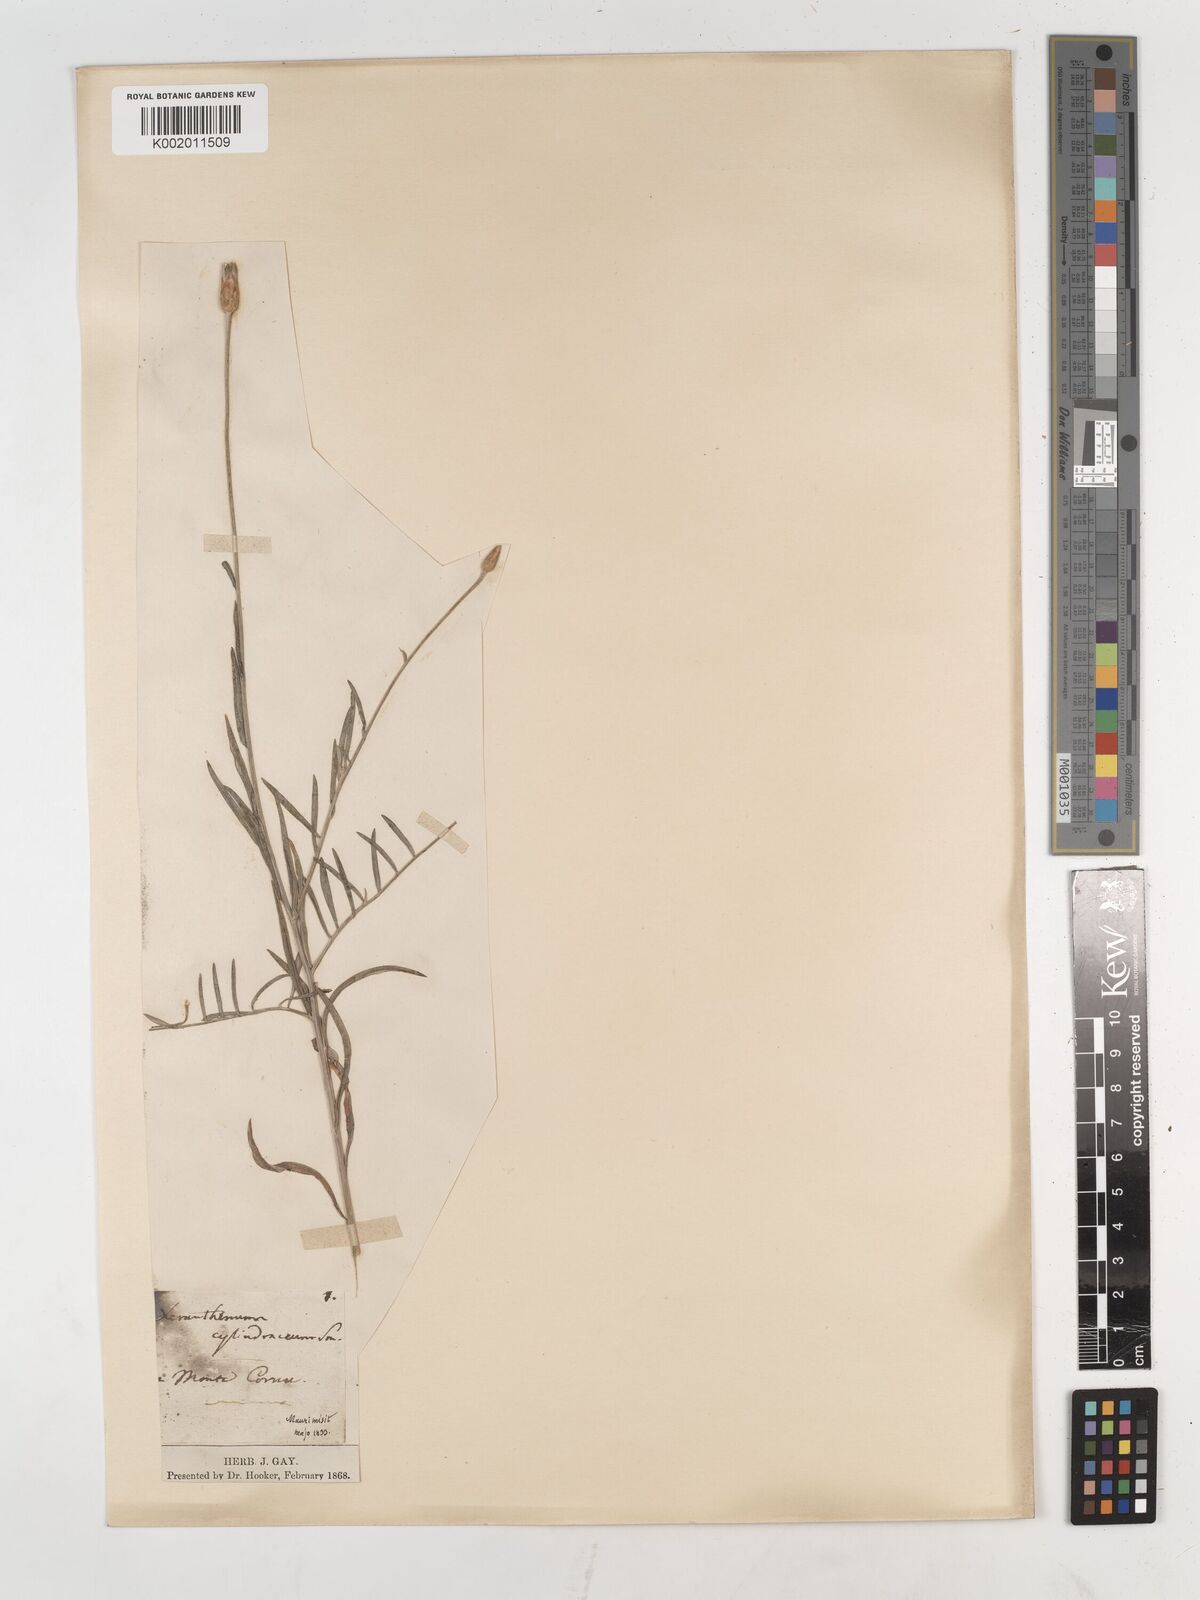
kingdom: Plantae
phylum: Tracheophyta
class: Magnoliopsida
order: Asterales
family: Asteraceae
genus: Xeranthemum
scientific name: Xeranthemum cylindraceum
